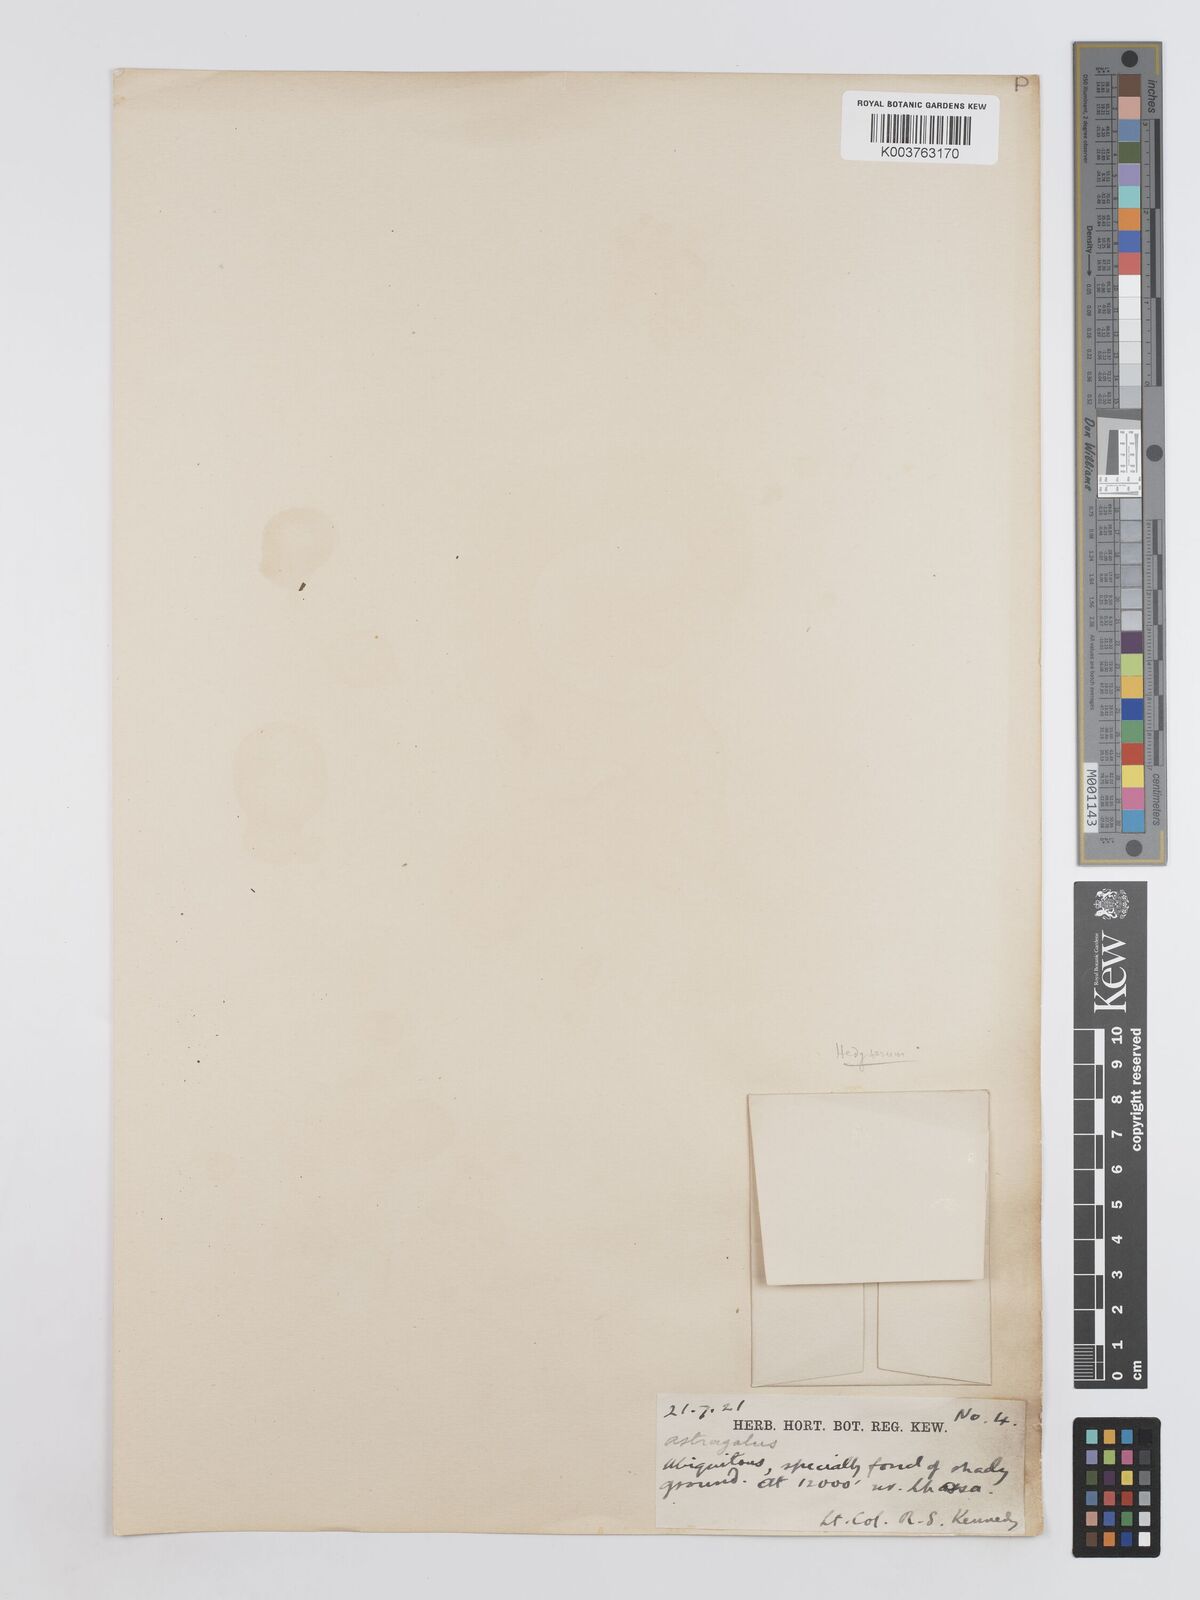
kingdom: Plantae
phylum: Tracheophyta
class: Magnoliopsida
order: Fabales
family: Fabaceae
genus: Hedysarum
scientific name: Hedysarum
